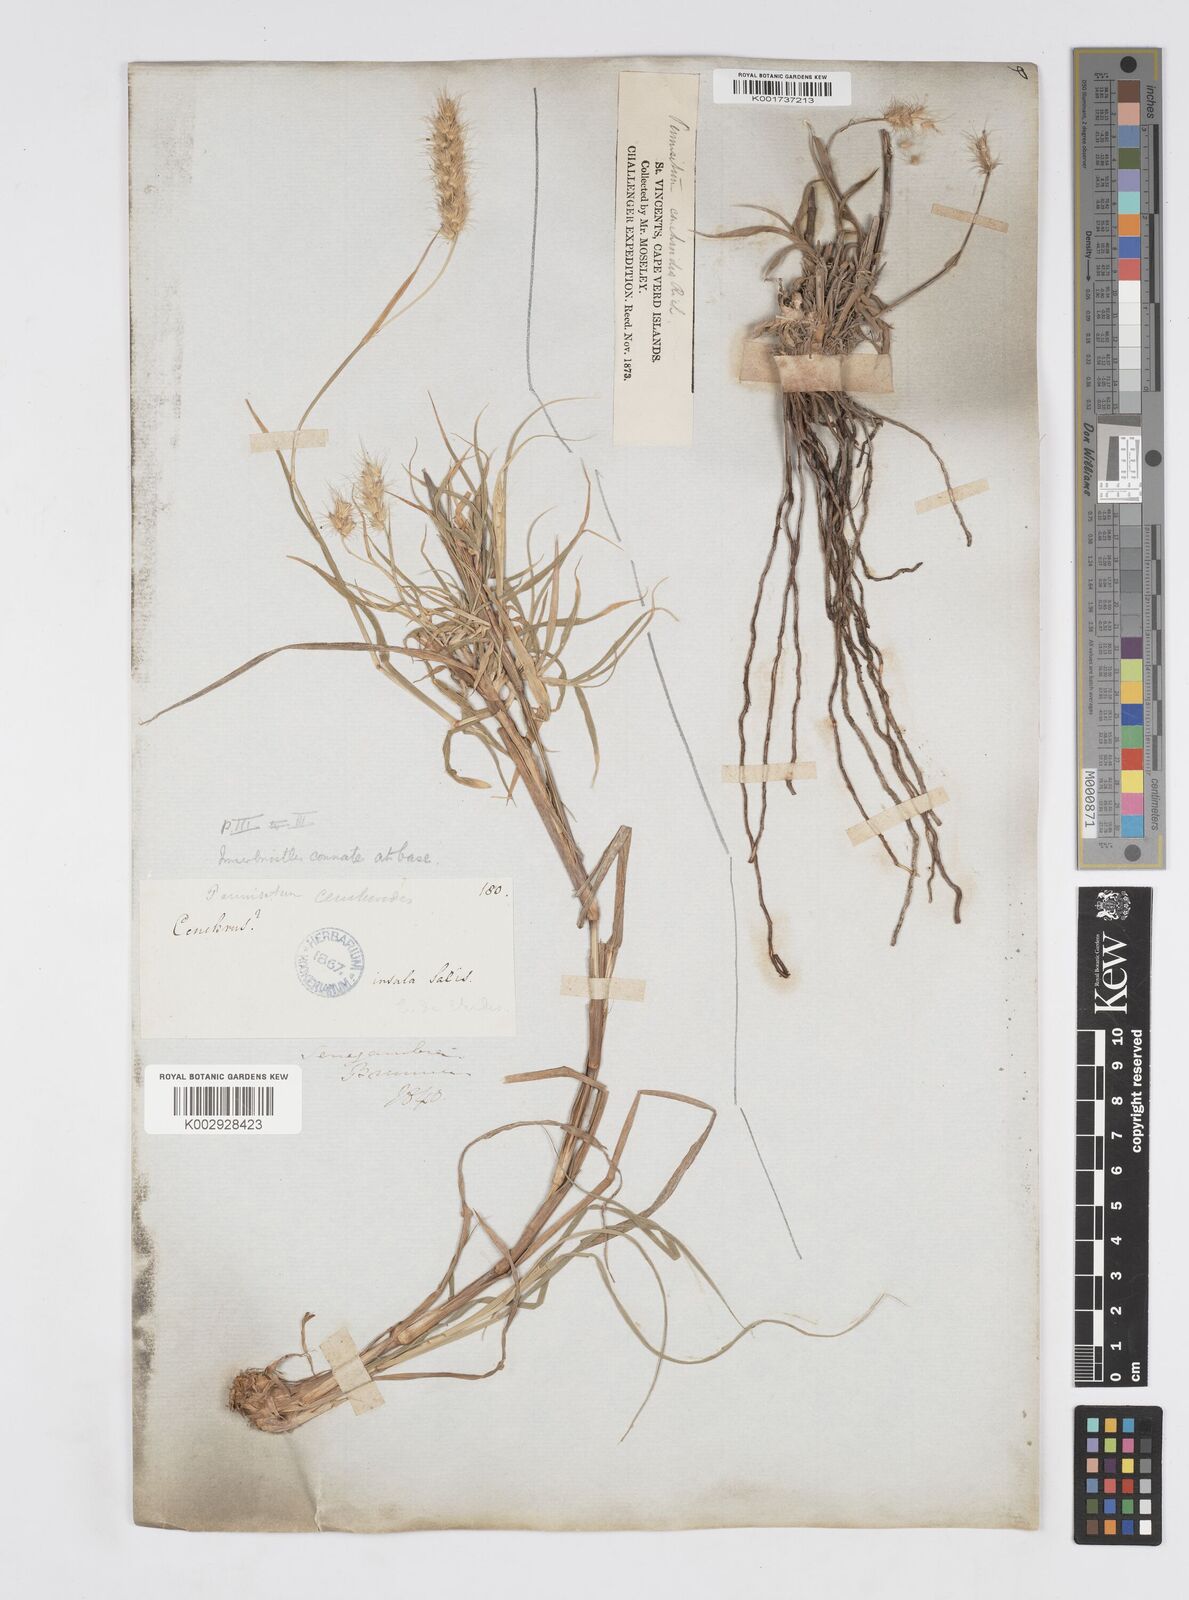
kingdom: Plantae
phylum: Tracheophyta
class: Liliopsida
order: Poales
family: Poaceae
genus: Cenchrus
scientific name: Cenchrus ciliaris
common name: Buffelgrass
